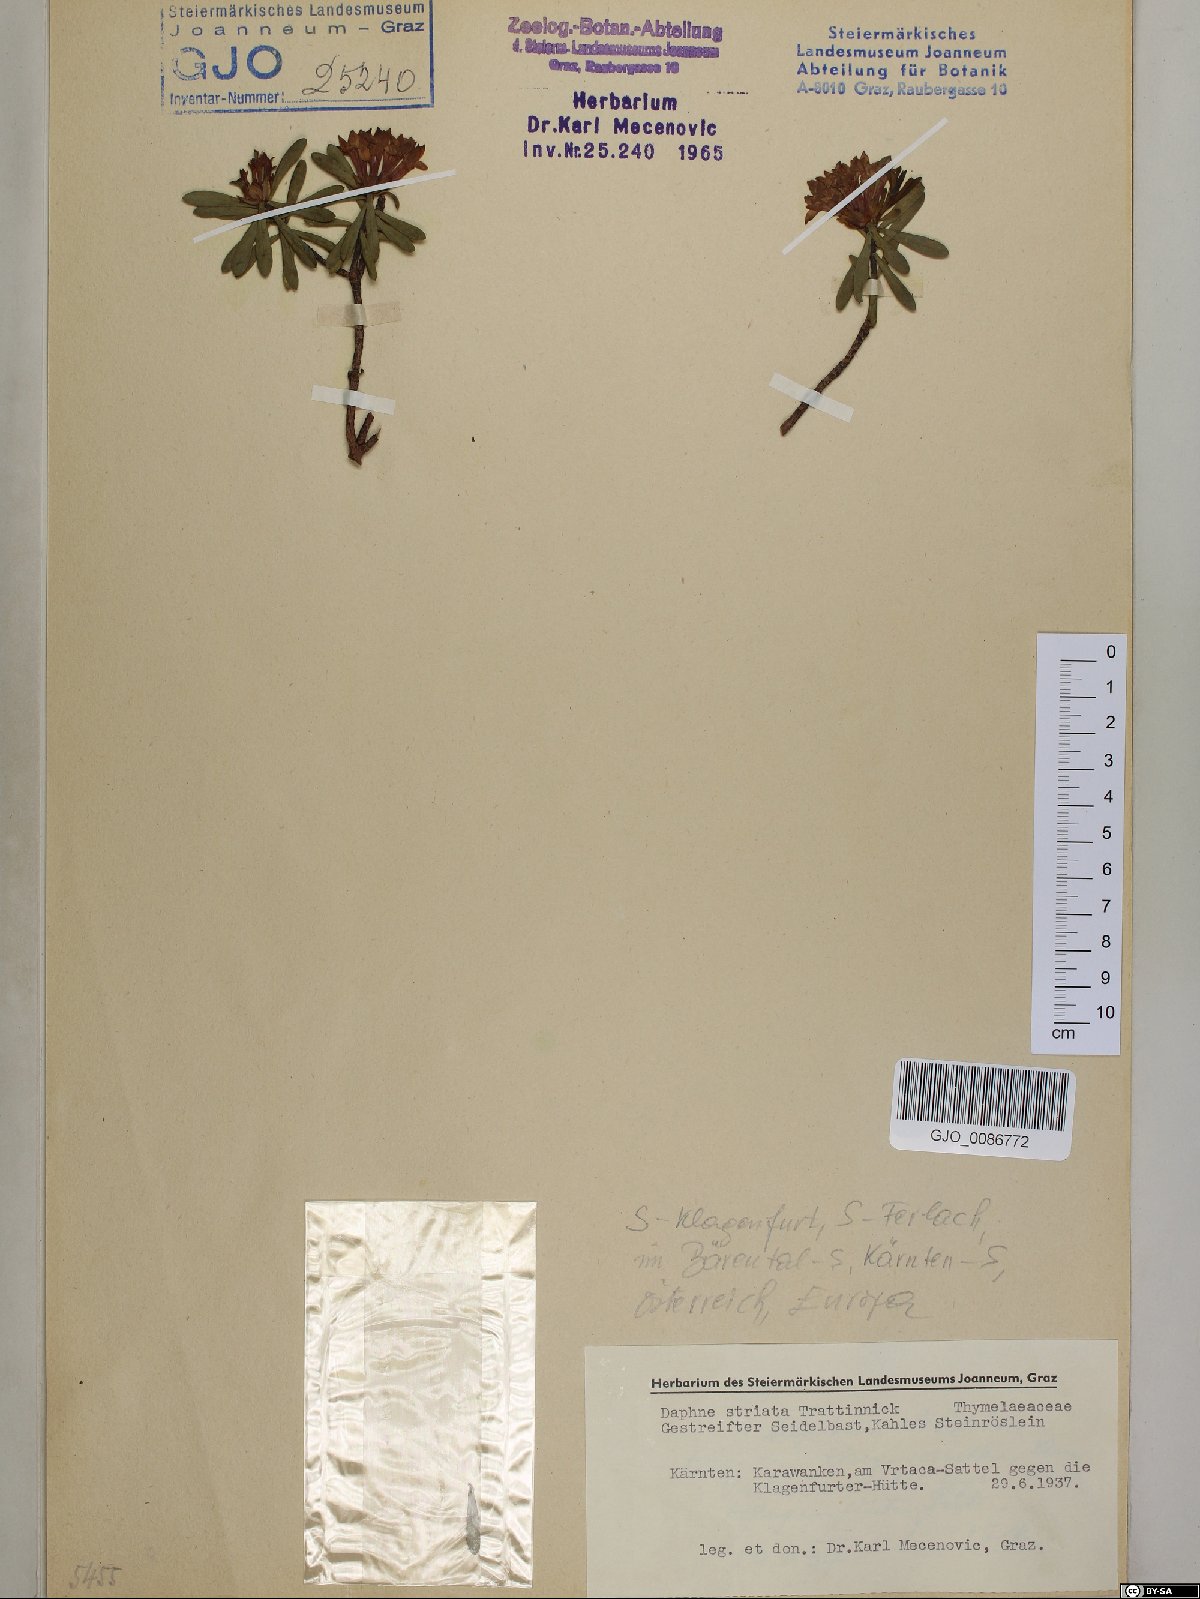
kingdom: Plantae
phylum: Tracheophyta
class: Magnoliopsida
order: Malvales
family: Thymelaeaceae
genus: Daphne
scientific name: Daphne striata
